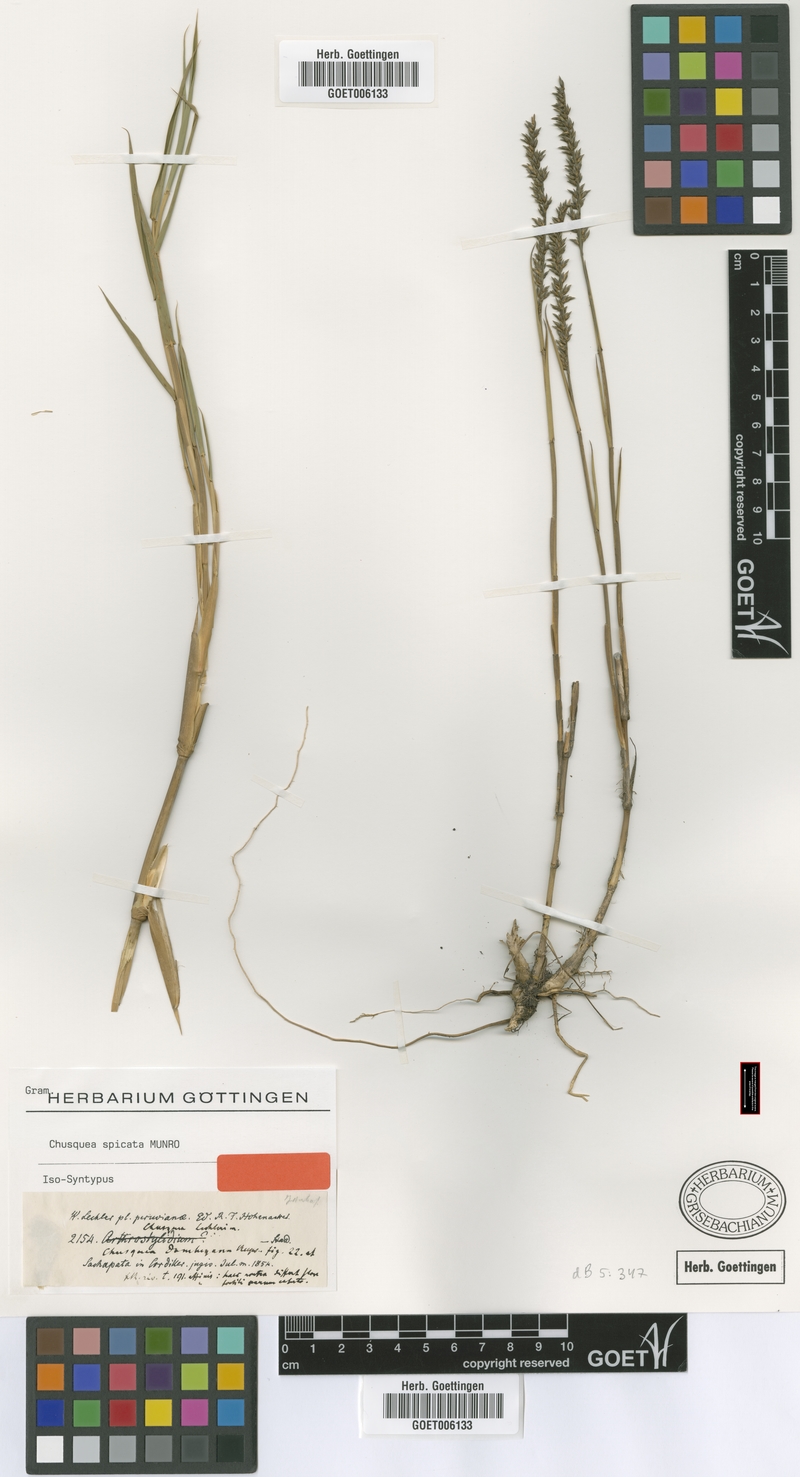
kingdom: Plantae
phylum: Tracheophyta
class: Liliopsida
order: Poales
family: Poaceae
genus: Chusquea
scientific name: Chusquea spicata
